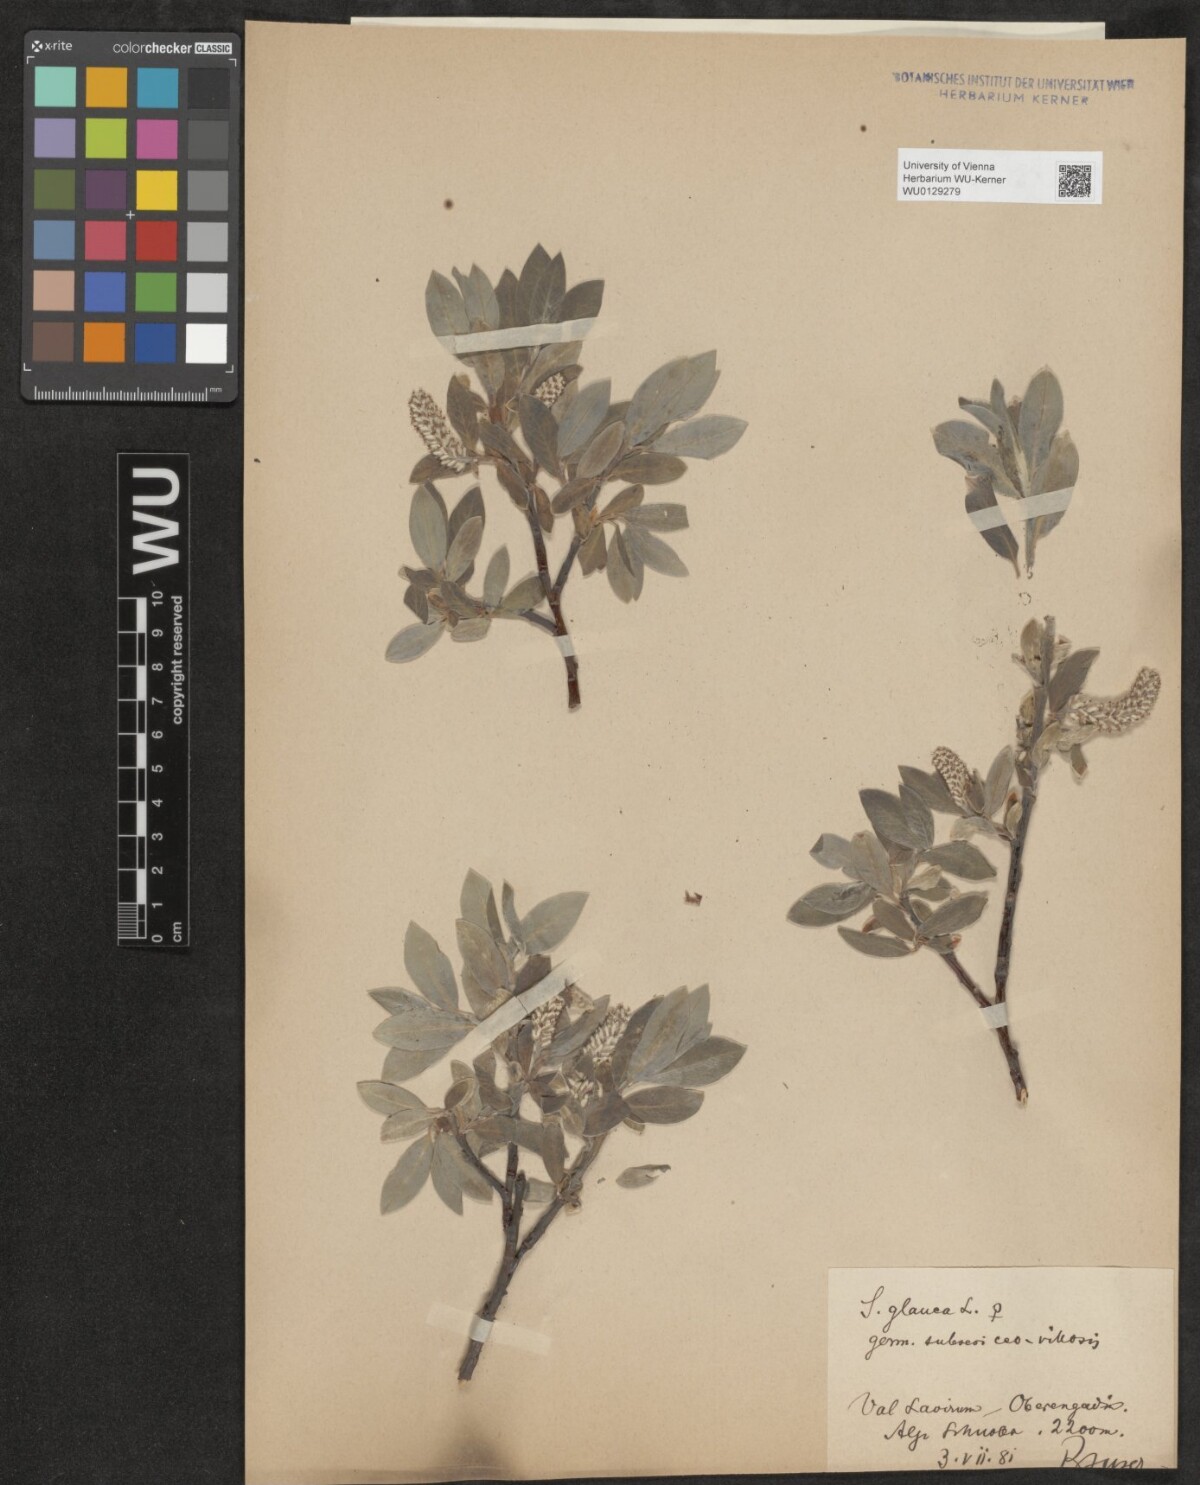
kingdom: Plantae
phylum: Tracheophyta
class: Magnoliopsida
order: Malpighiales
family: Salicaceae
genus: Salix
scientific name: Salix glauca
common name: Glaucous willow
